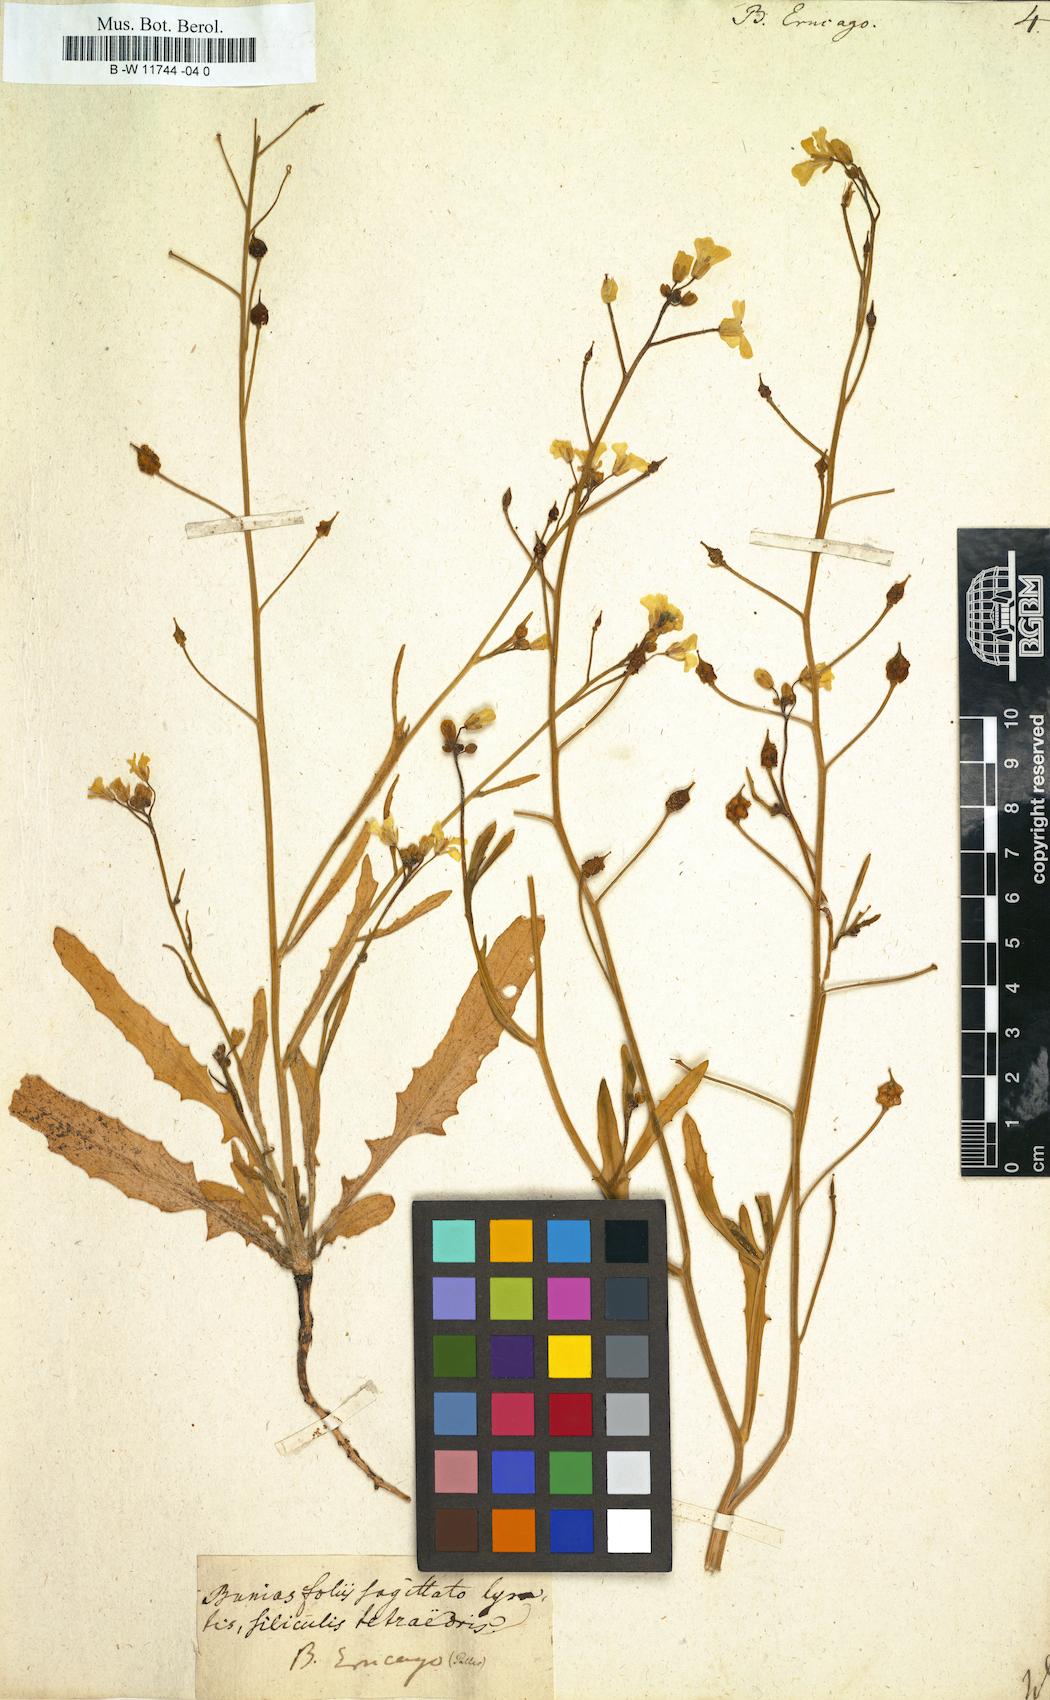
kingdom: Plantae
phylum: Tracheophyta
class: Magnoliopsida
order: Brassicales
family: Brassicaceae
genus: Bunias
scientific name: Bunias erucago
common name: Southern warty-cabbage
